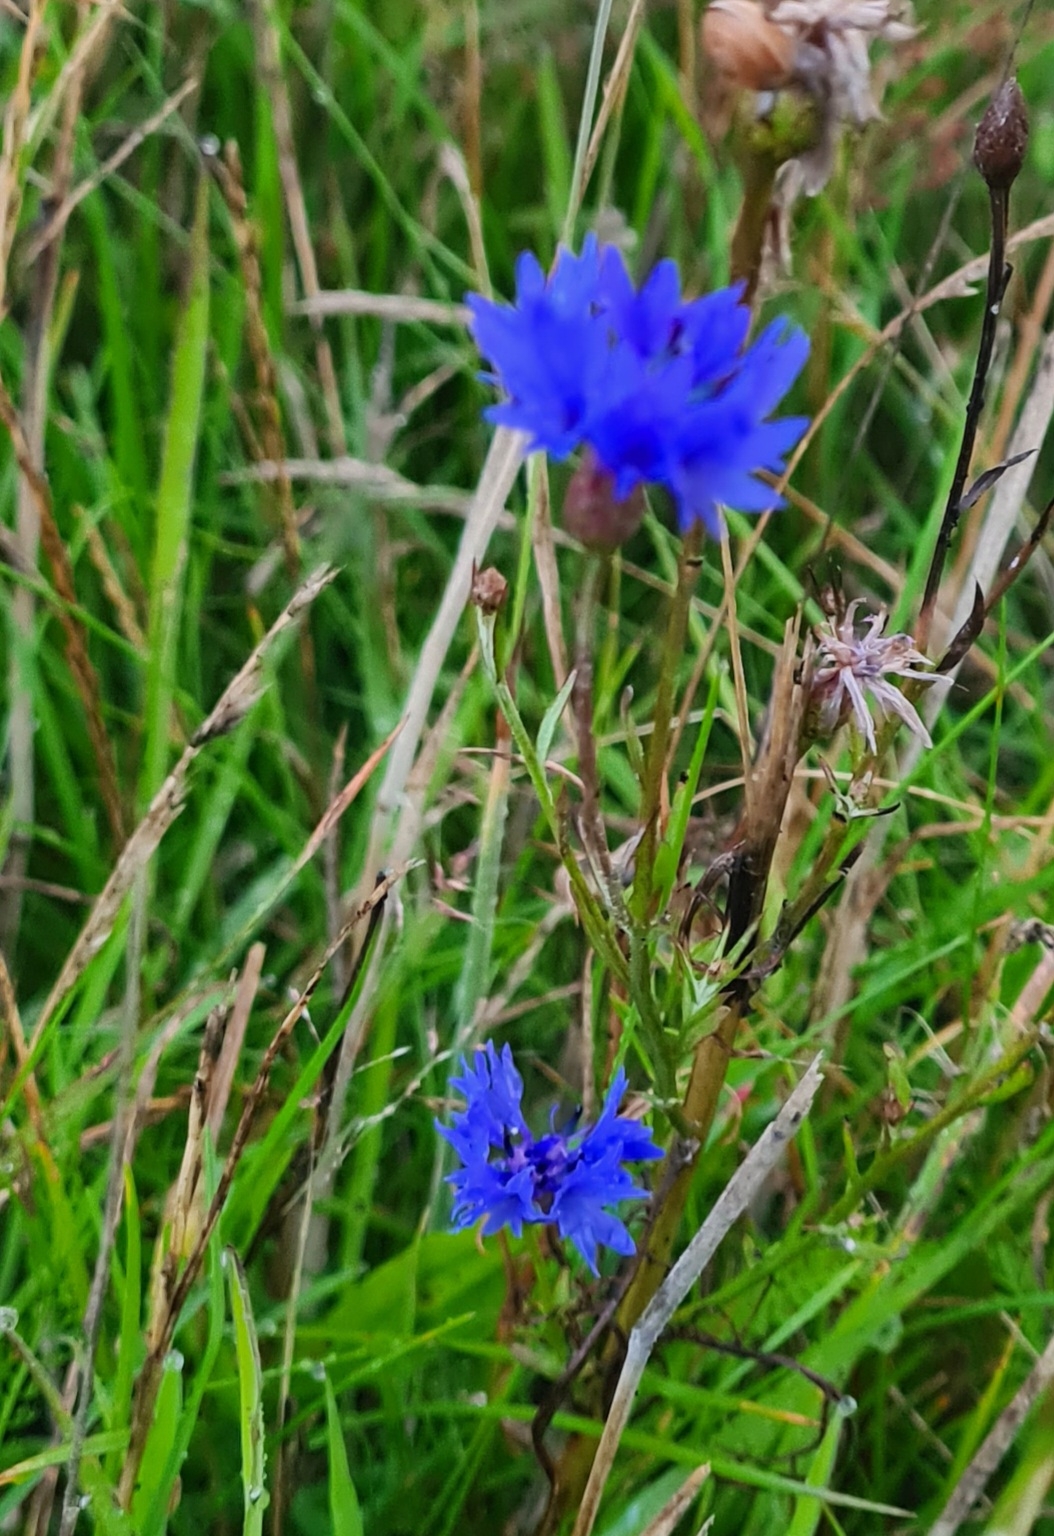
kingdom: Plantae
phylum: Tracheophyta
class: Magnoliopsida
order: Asterales
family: Asteraceae
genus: Centaurea
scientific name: Centaurea cyanus
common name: Kornblomst
